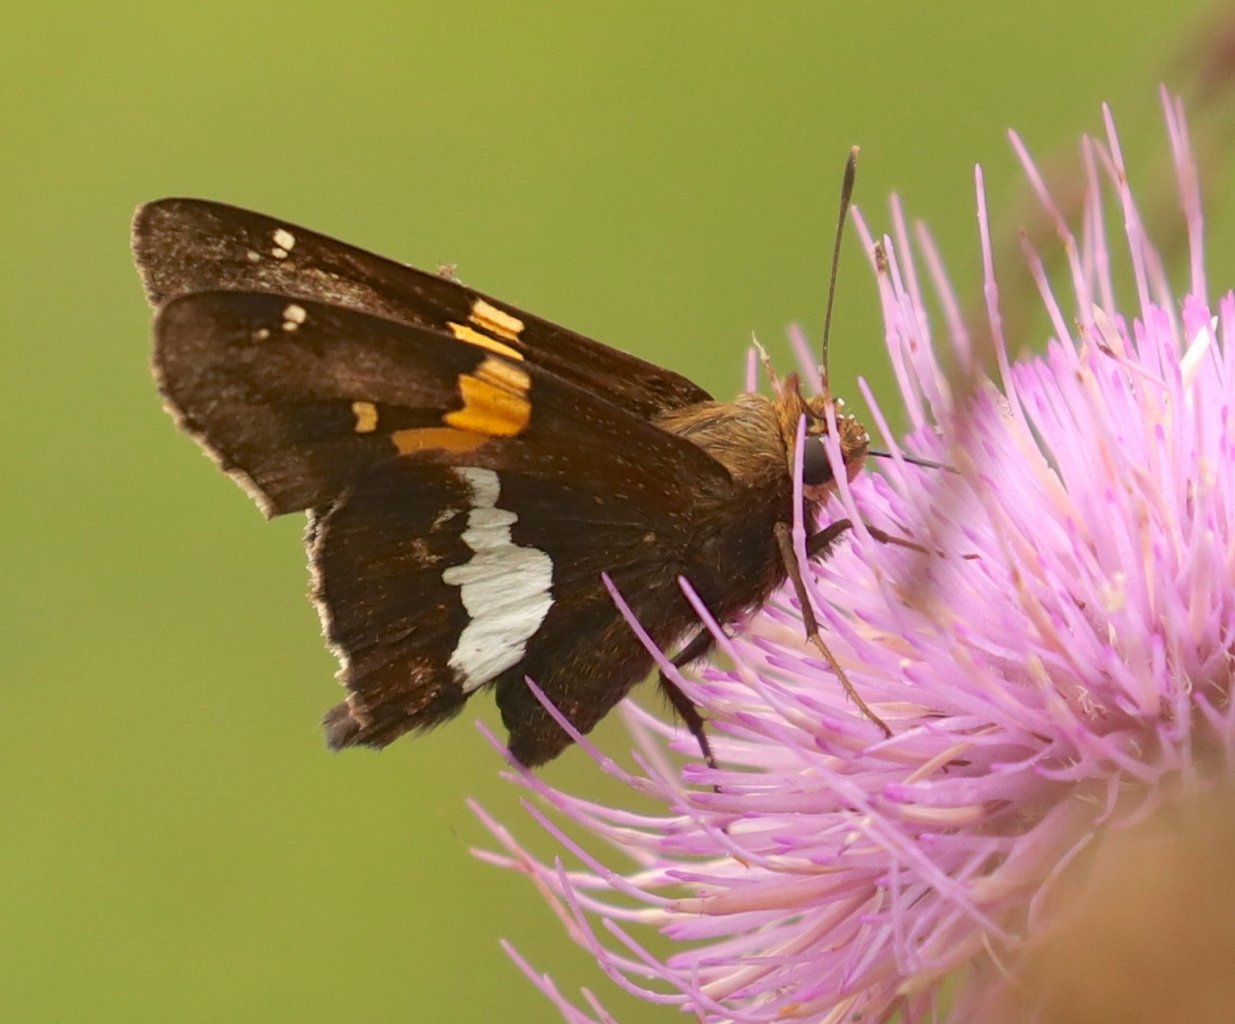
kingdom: Animalia
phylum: Arthropoda
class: Insecta
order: Lepidoptera
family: Hesperiidae
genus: Epargyreus
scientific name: Epargyreus clarus
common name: Silver-spotted Skipper
